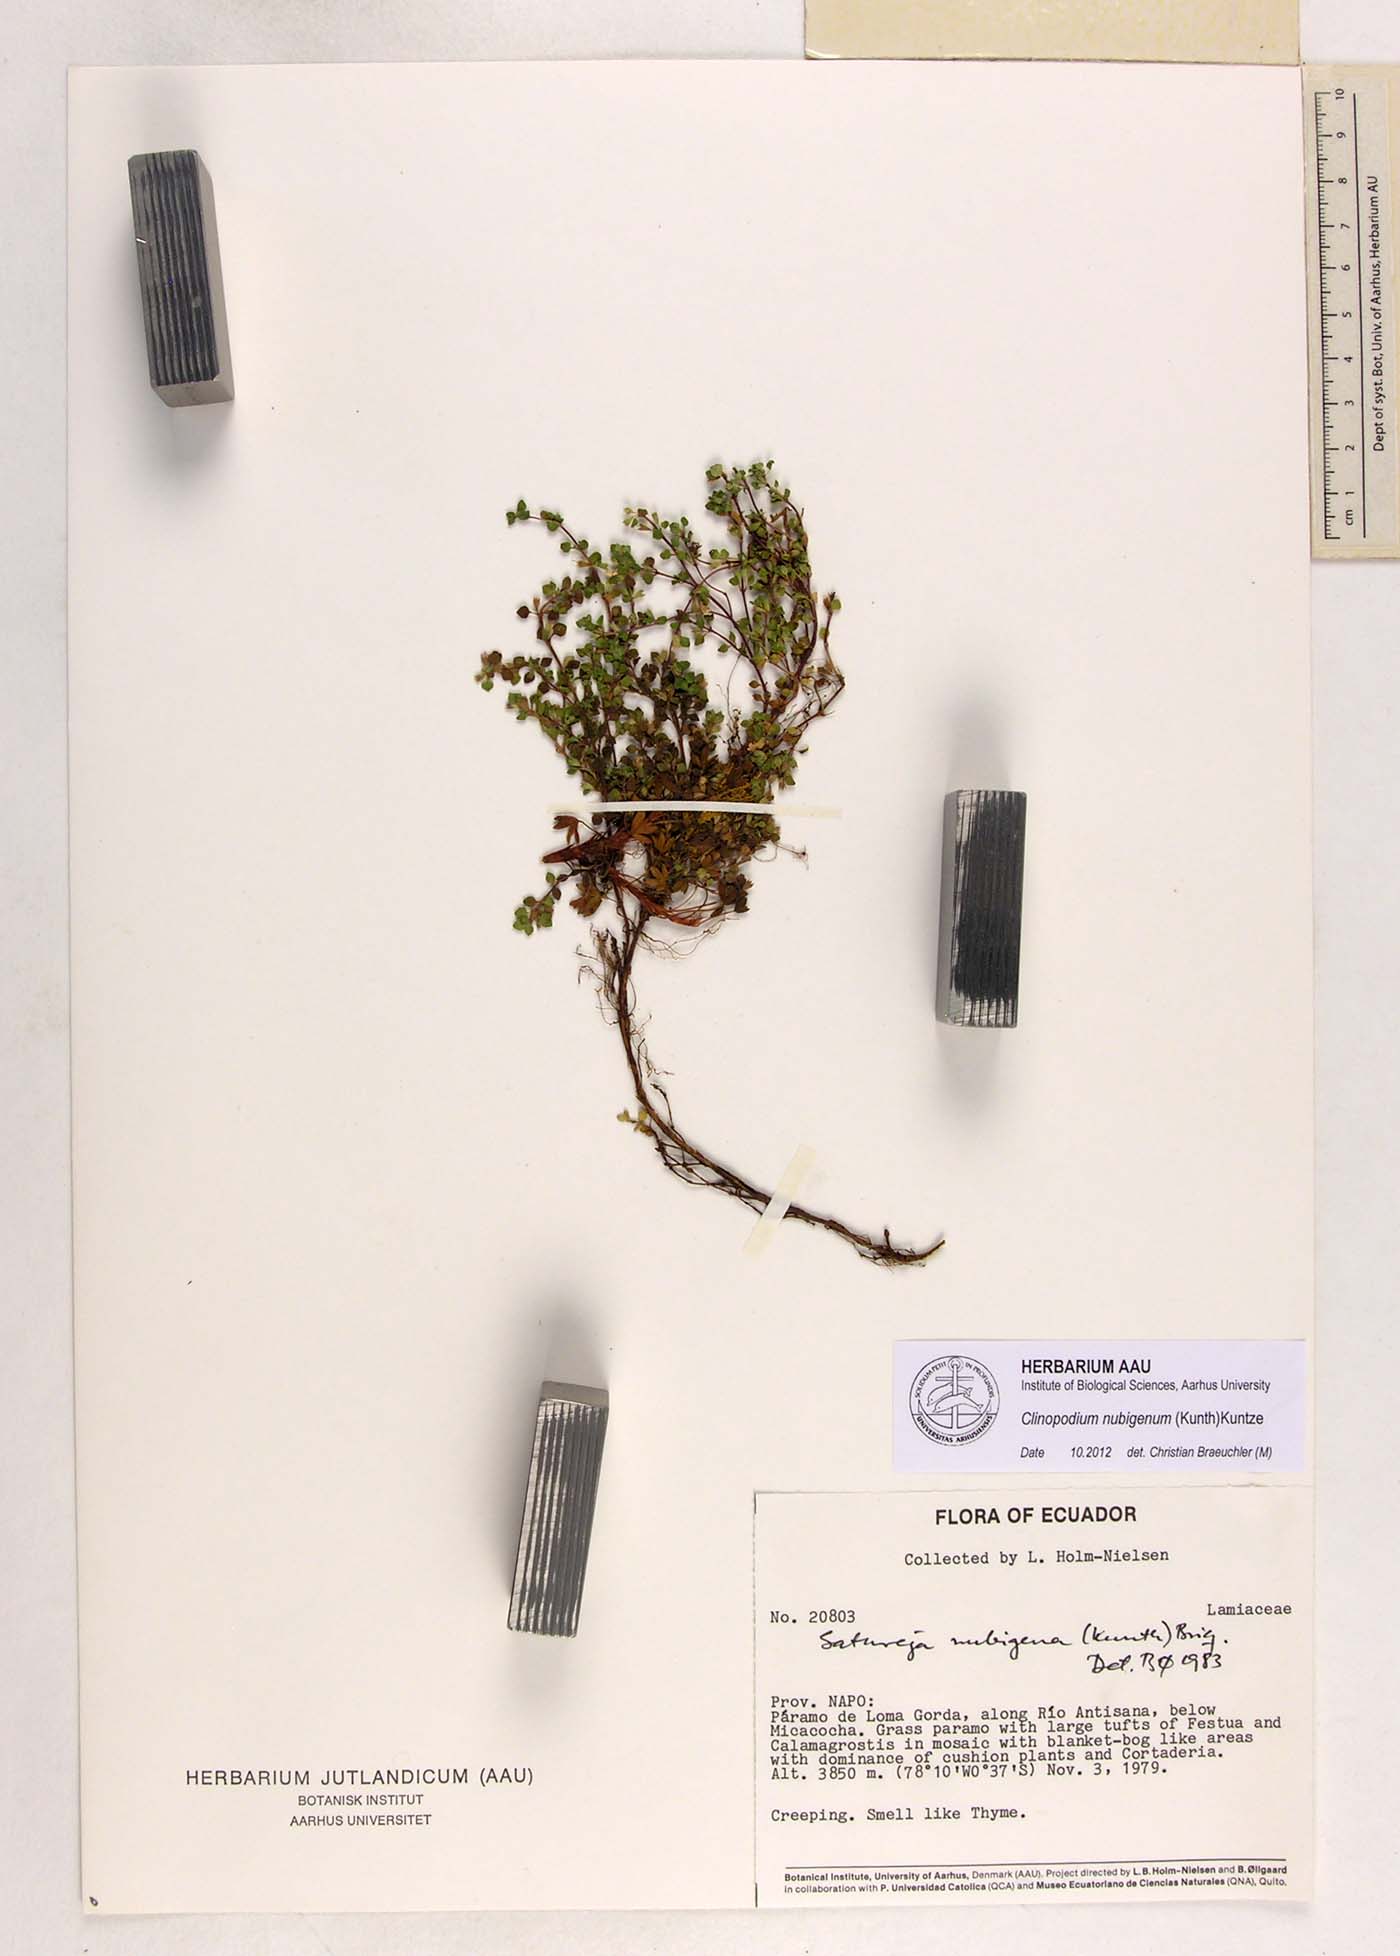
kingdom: Plantae
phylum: Tracheophyta
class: Magnoliopsida
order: Lamiales
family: Lamiaceae
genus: Clinopodium
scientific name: Clinopodium nubigenum
